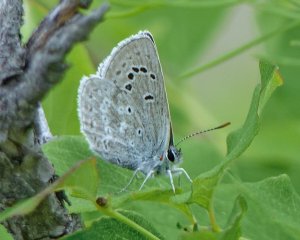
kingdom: Animalia
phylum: Arthropoda
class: Insecta
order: Lepidoptera
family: Lycaenidae
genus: Icaricia
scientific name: Icaricia icarioides
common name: Boisduval's Blue
